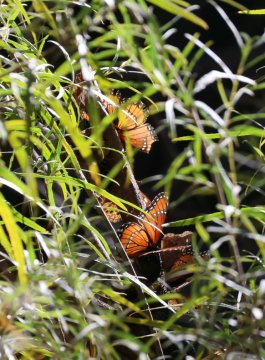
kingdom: Animalia
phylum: Arthropoda
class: Insecta
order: Lepidoptera
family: Nymphalidae
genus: Limenitis
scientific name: Limenitis archippus
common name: Viceroy
